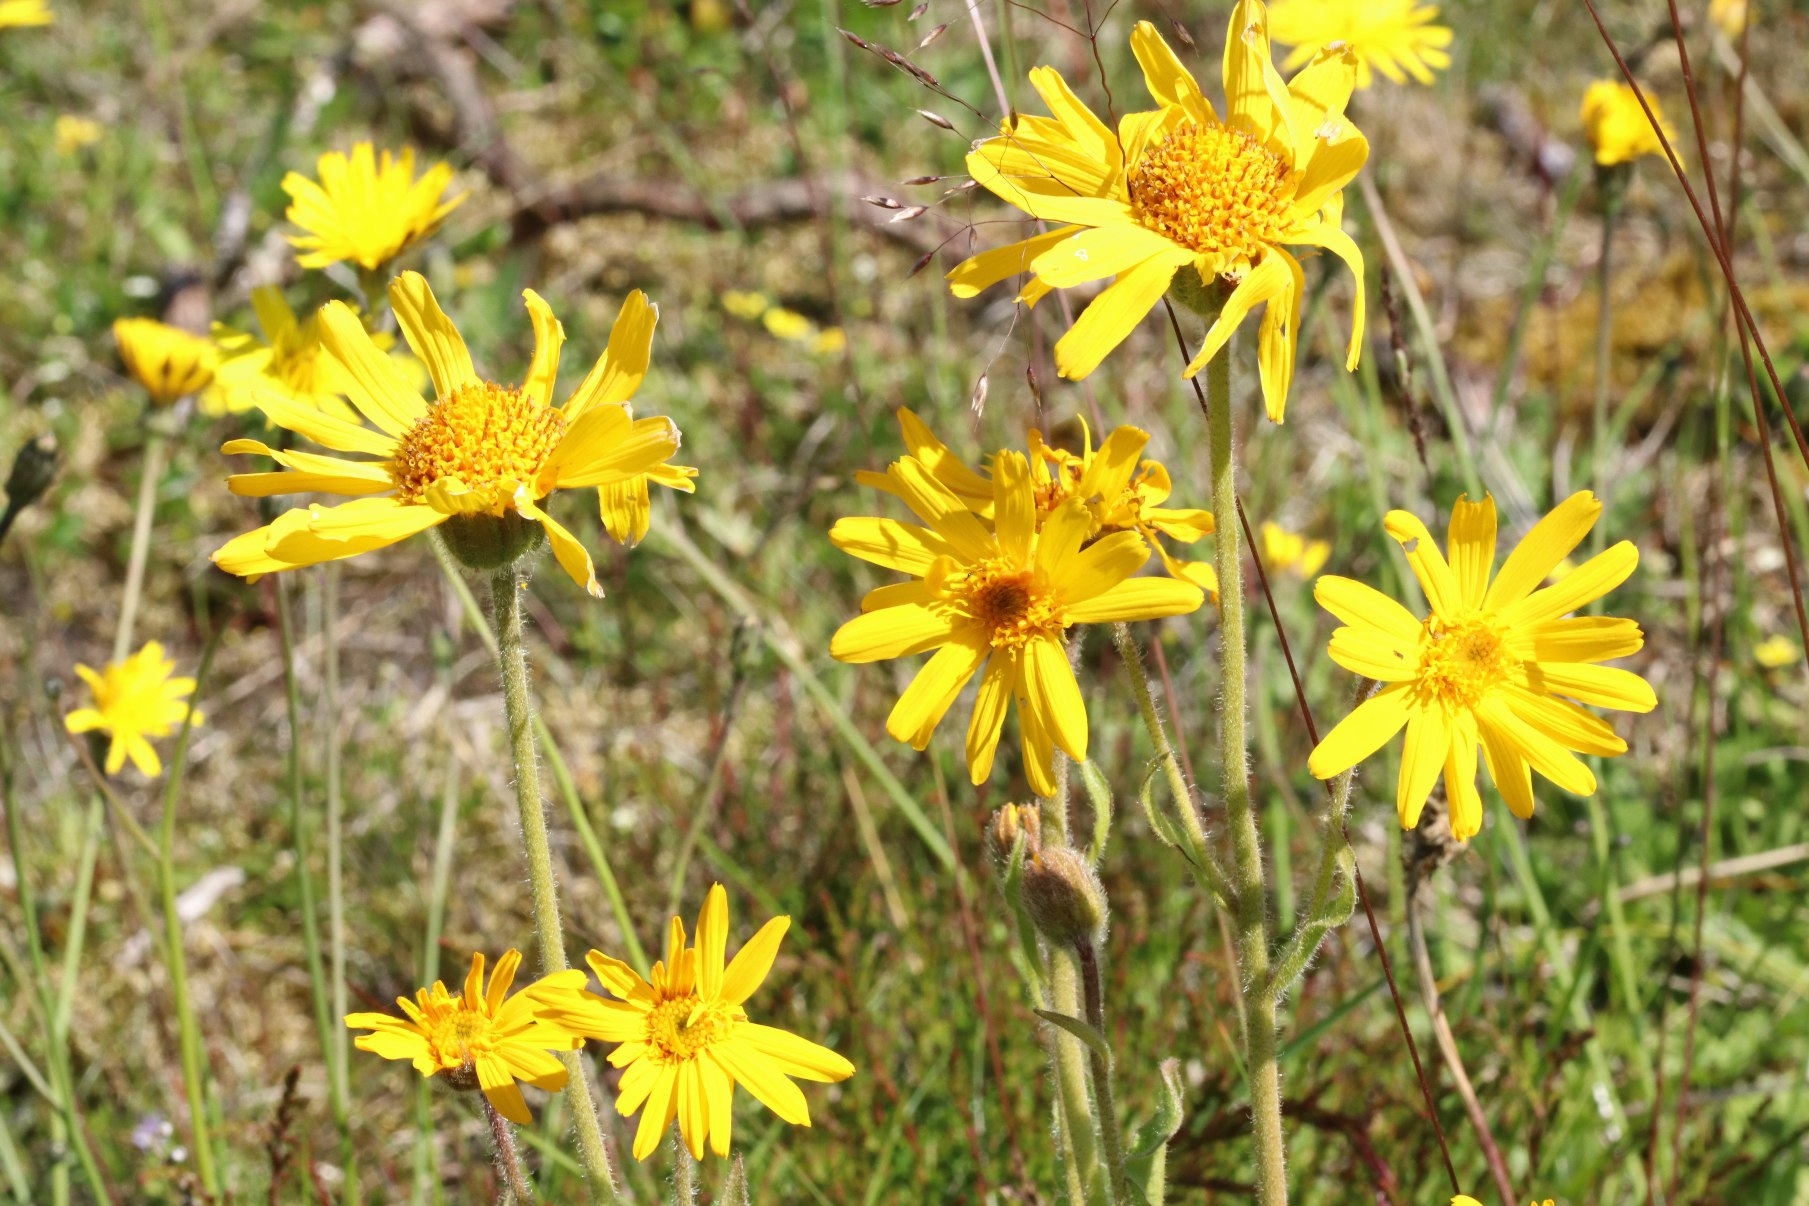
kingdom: Plantae
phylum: Tracheophyta
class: Magnoliopsida
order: Asterales
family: Asteraceae
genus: Arnica
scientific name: Arnica montana
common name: Guldblomme
